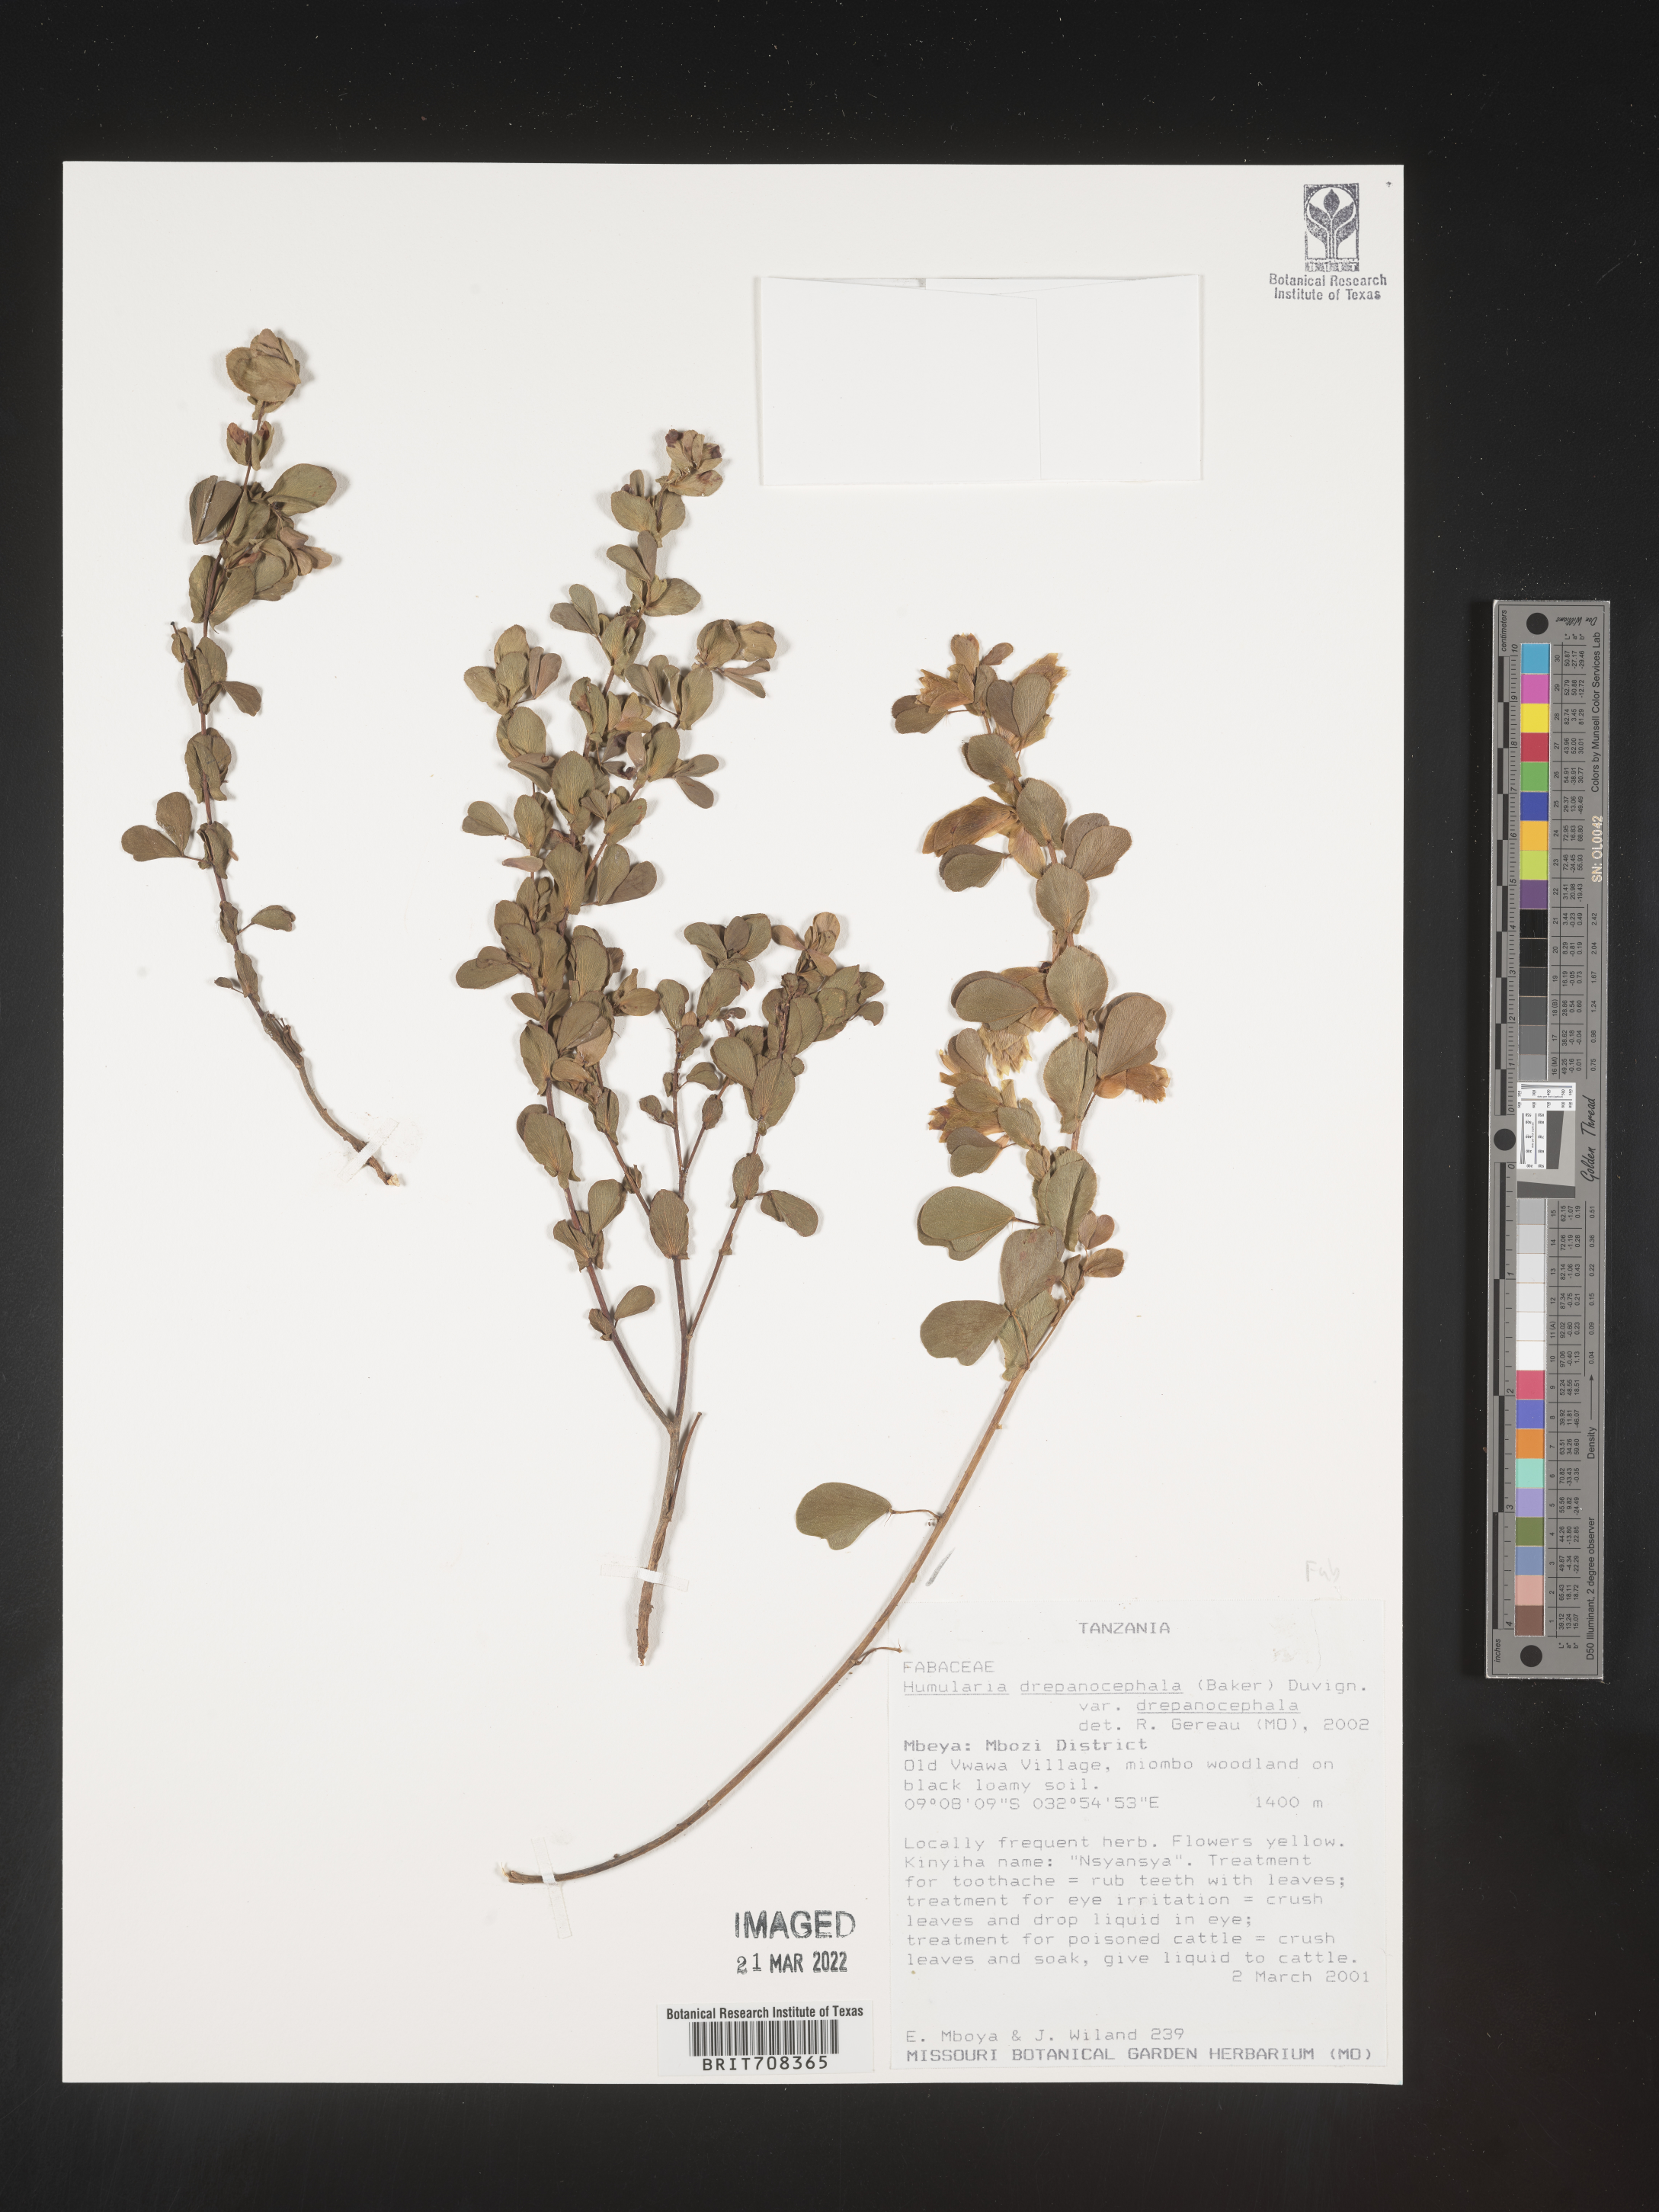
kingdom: Plantae
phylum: Tracheophyta
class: Magnoliopsida
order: Fabales
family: Fabaceae
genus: Humularia
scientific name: Humularia
